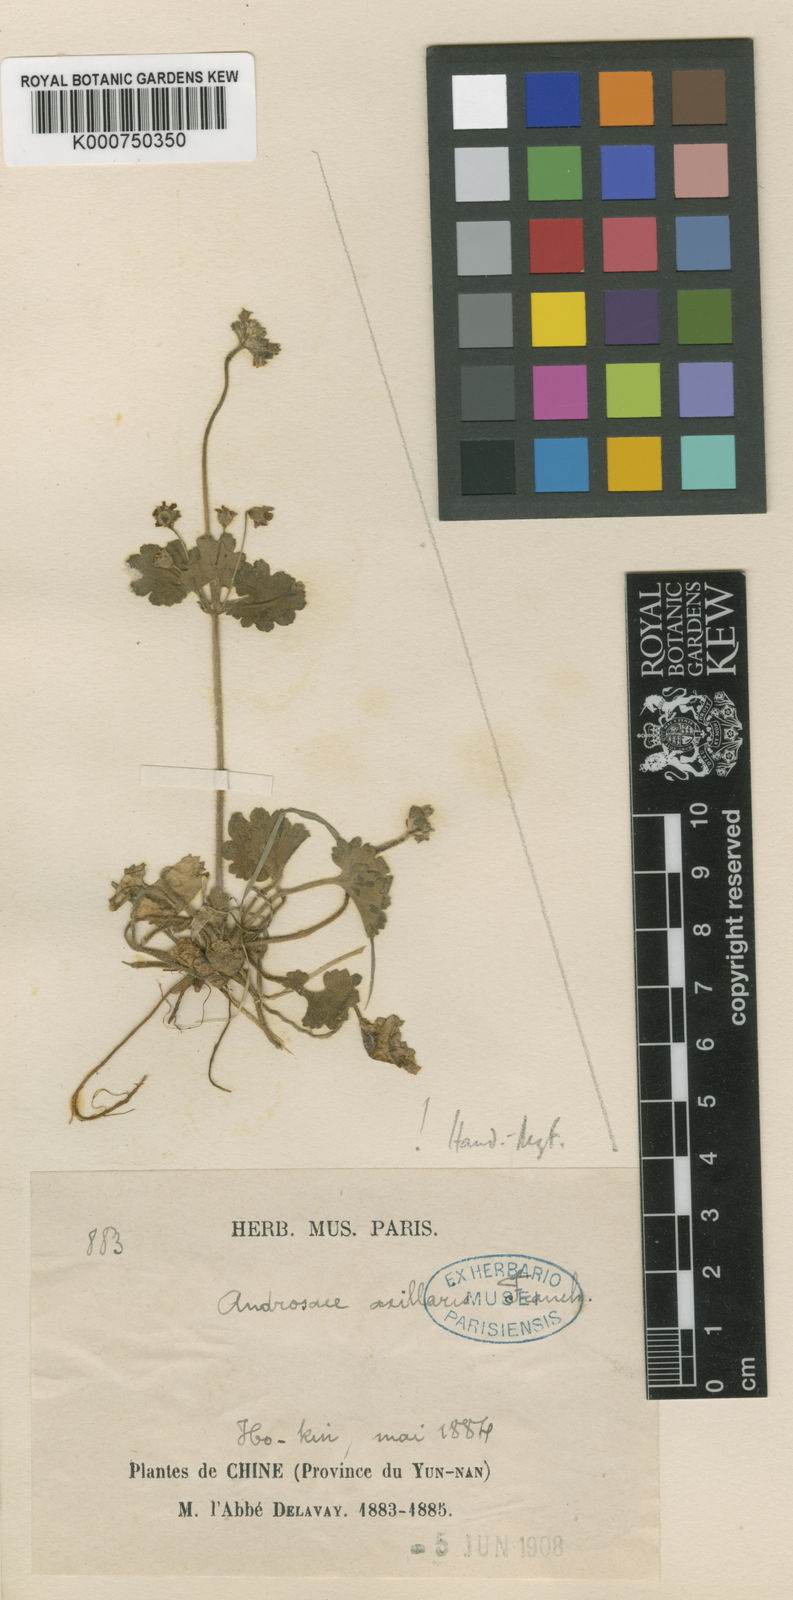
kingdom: Plantae
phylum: Tracheophyta
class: Magnoliopsida
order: Ericales
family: Primulaceae
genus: Androsace
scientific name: Androsace axillaris
